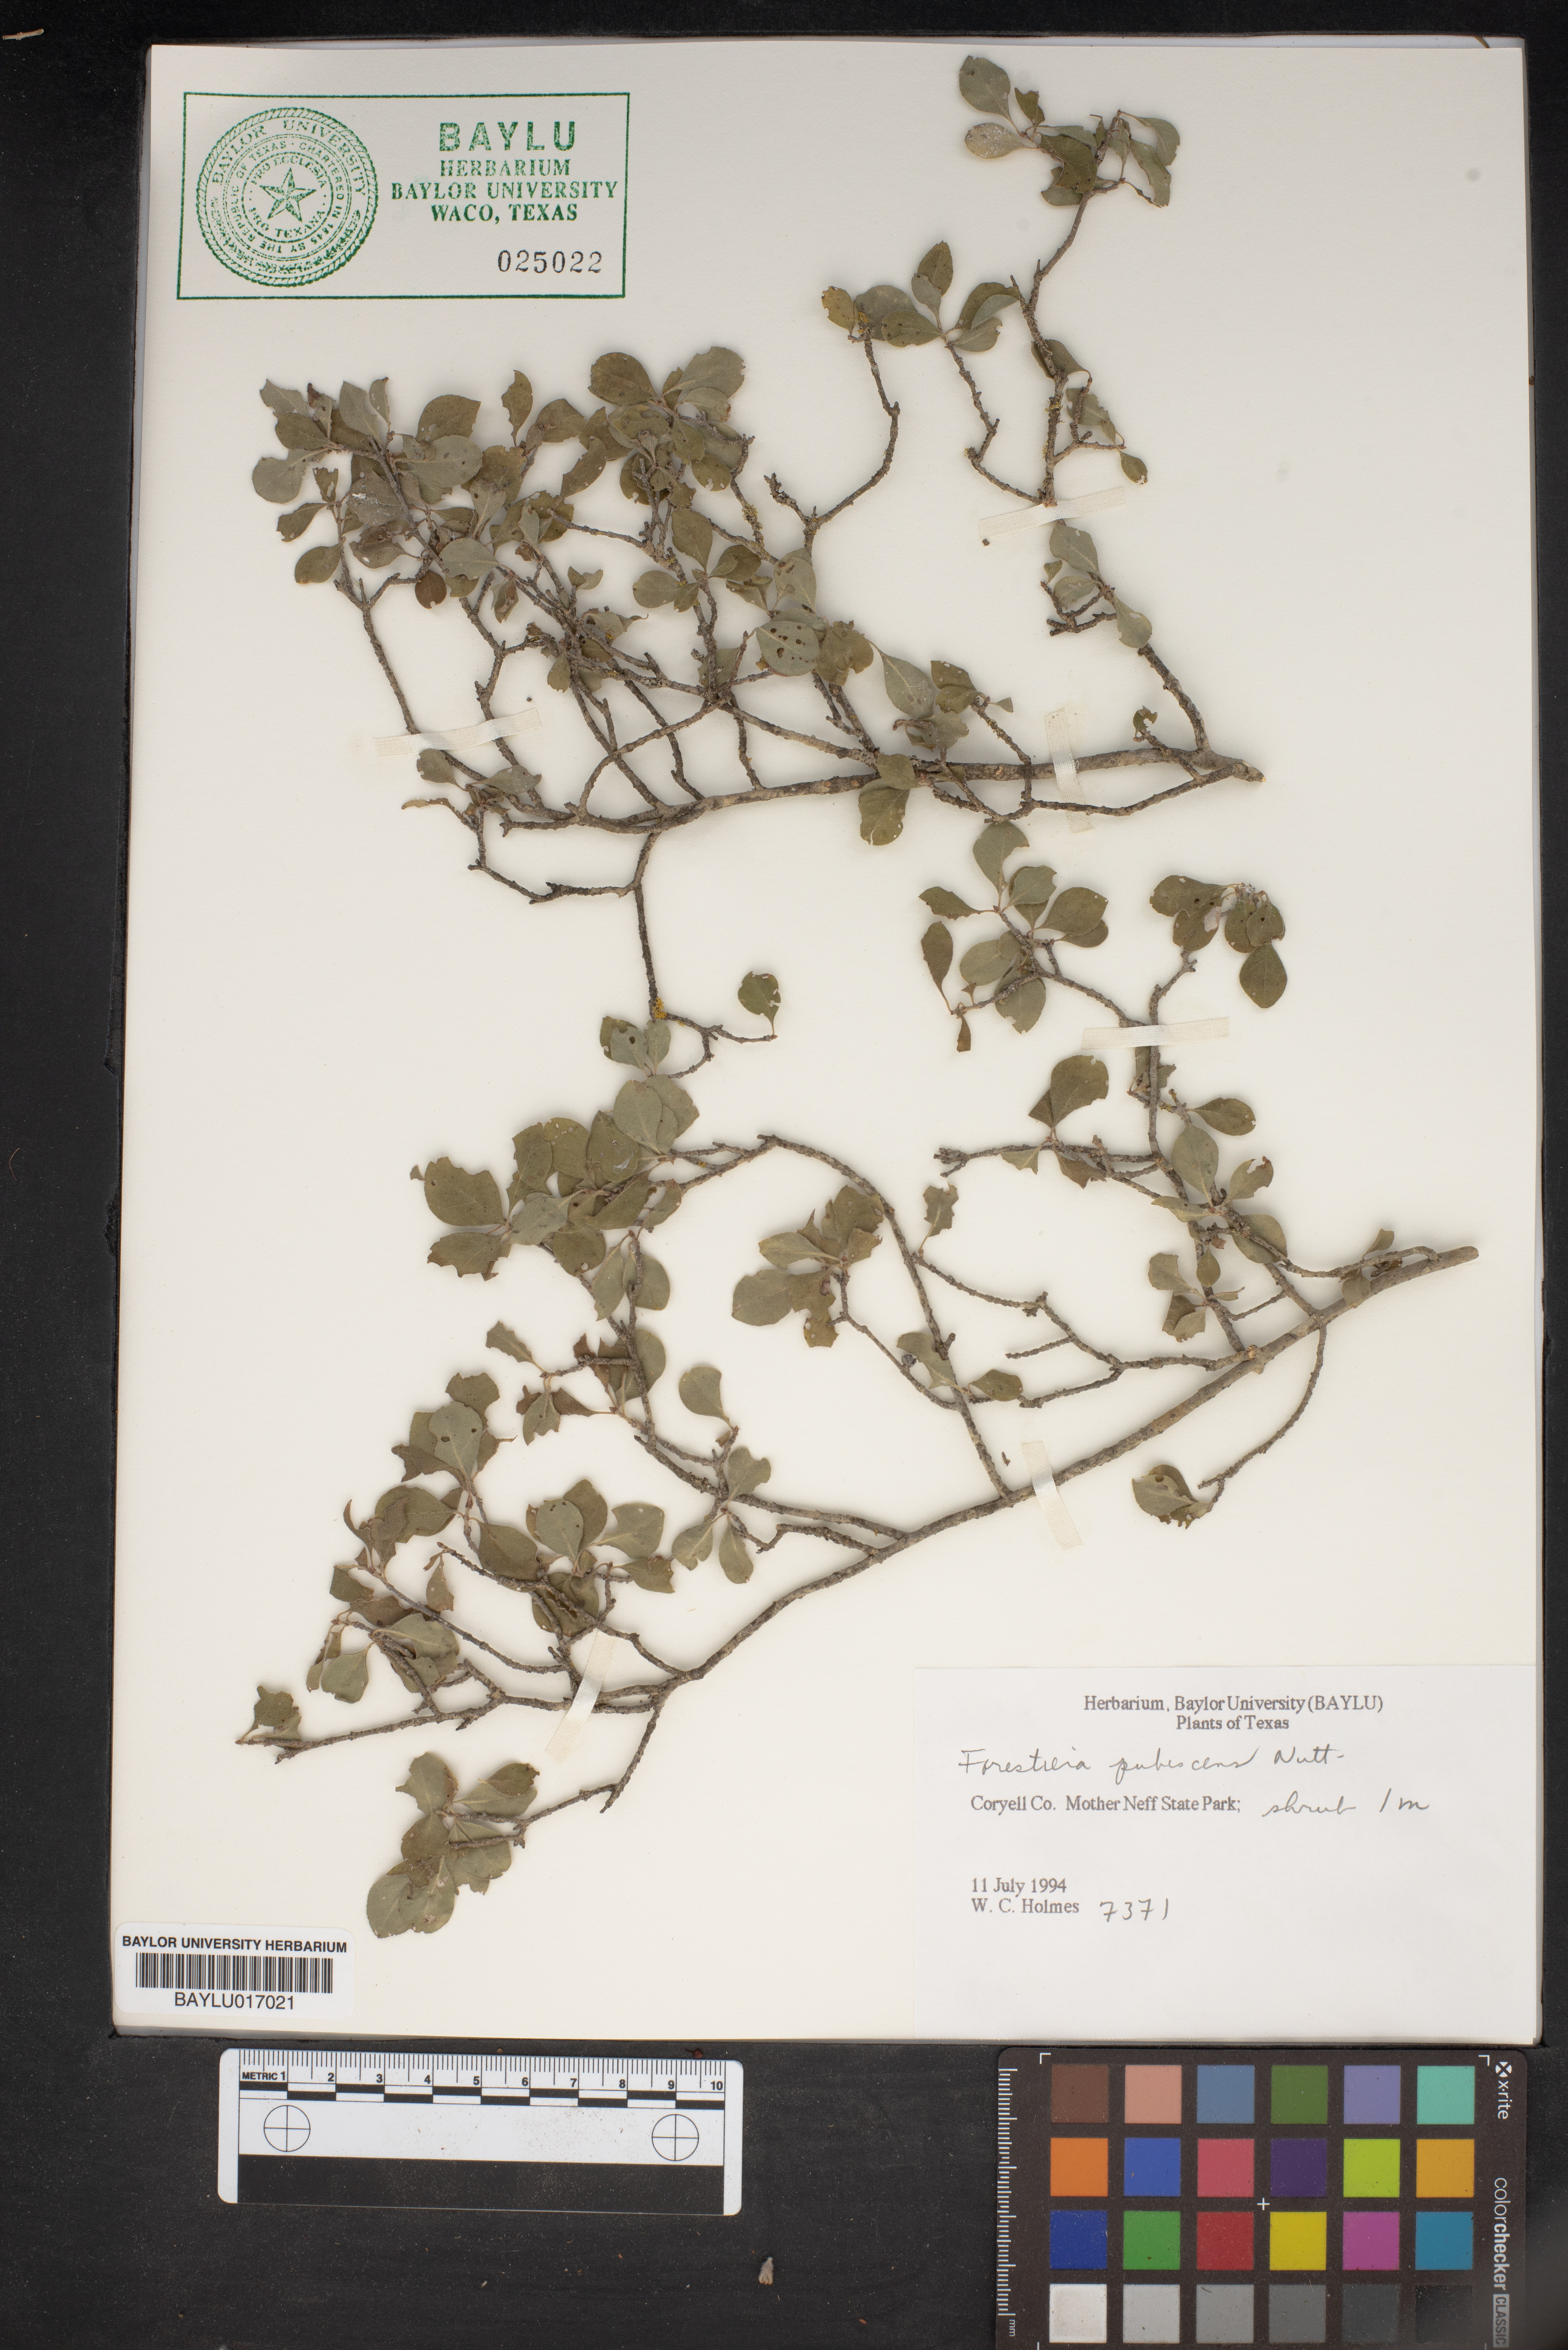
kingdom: Plantae
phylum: Tracheophyta
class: Magnoliopsida
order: Lamiales
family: Oleaceae
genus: Forestiera
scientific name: Forestiera pubescens
